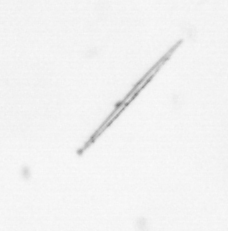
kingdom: Chromista
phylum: Ochrophyta
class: Bacillariophyceae
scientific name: Bacillariophyceae
